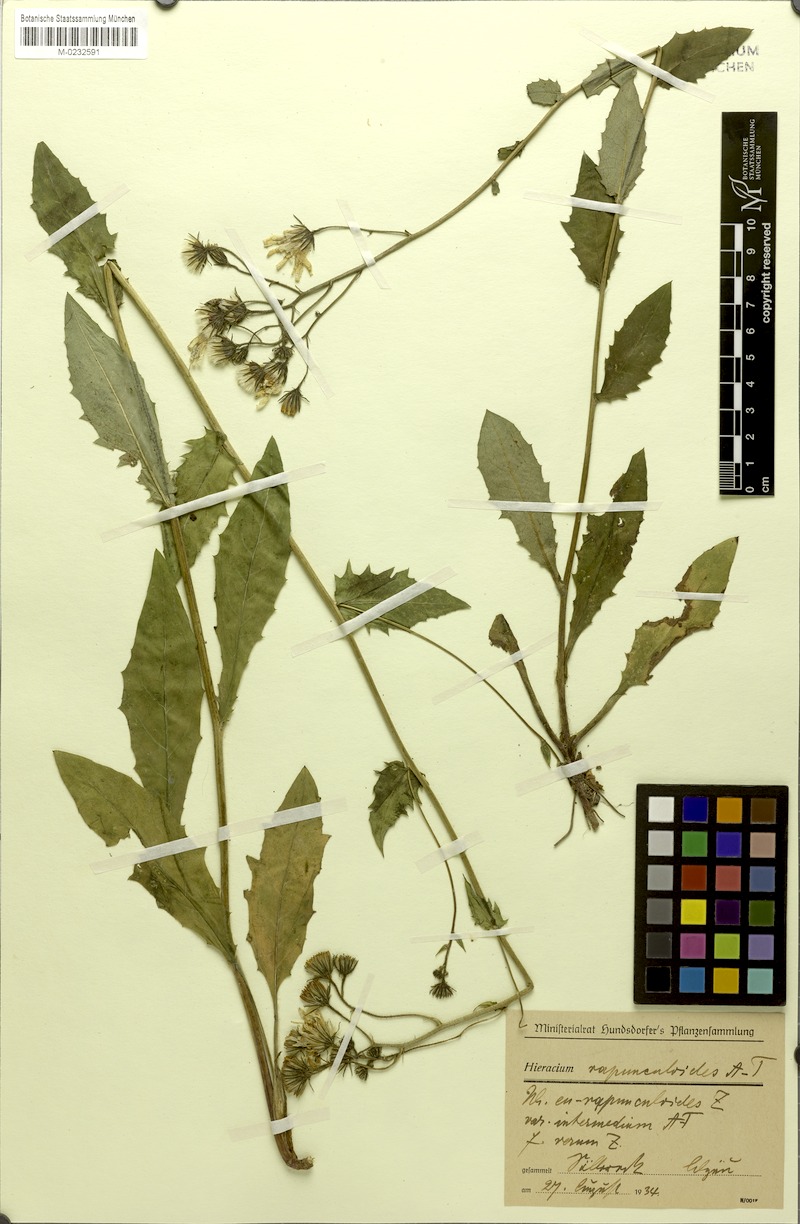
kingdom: Plantae
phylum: Tracheophyta
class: Magnoliopsida
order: Asterales
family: Asteraceae
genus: Hieracium
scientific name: Hieracium rapunculoides
